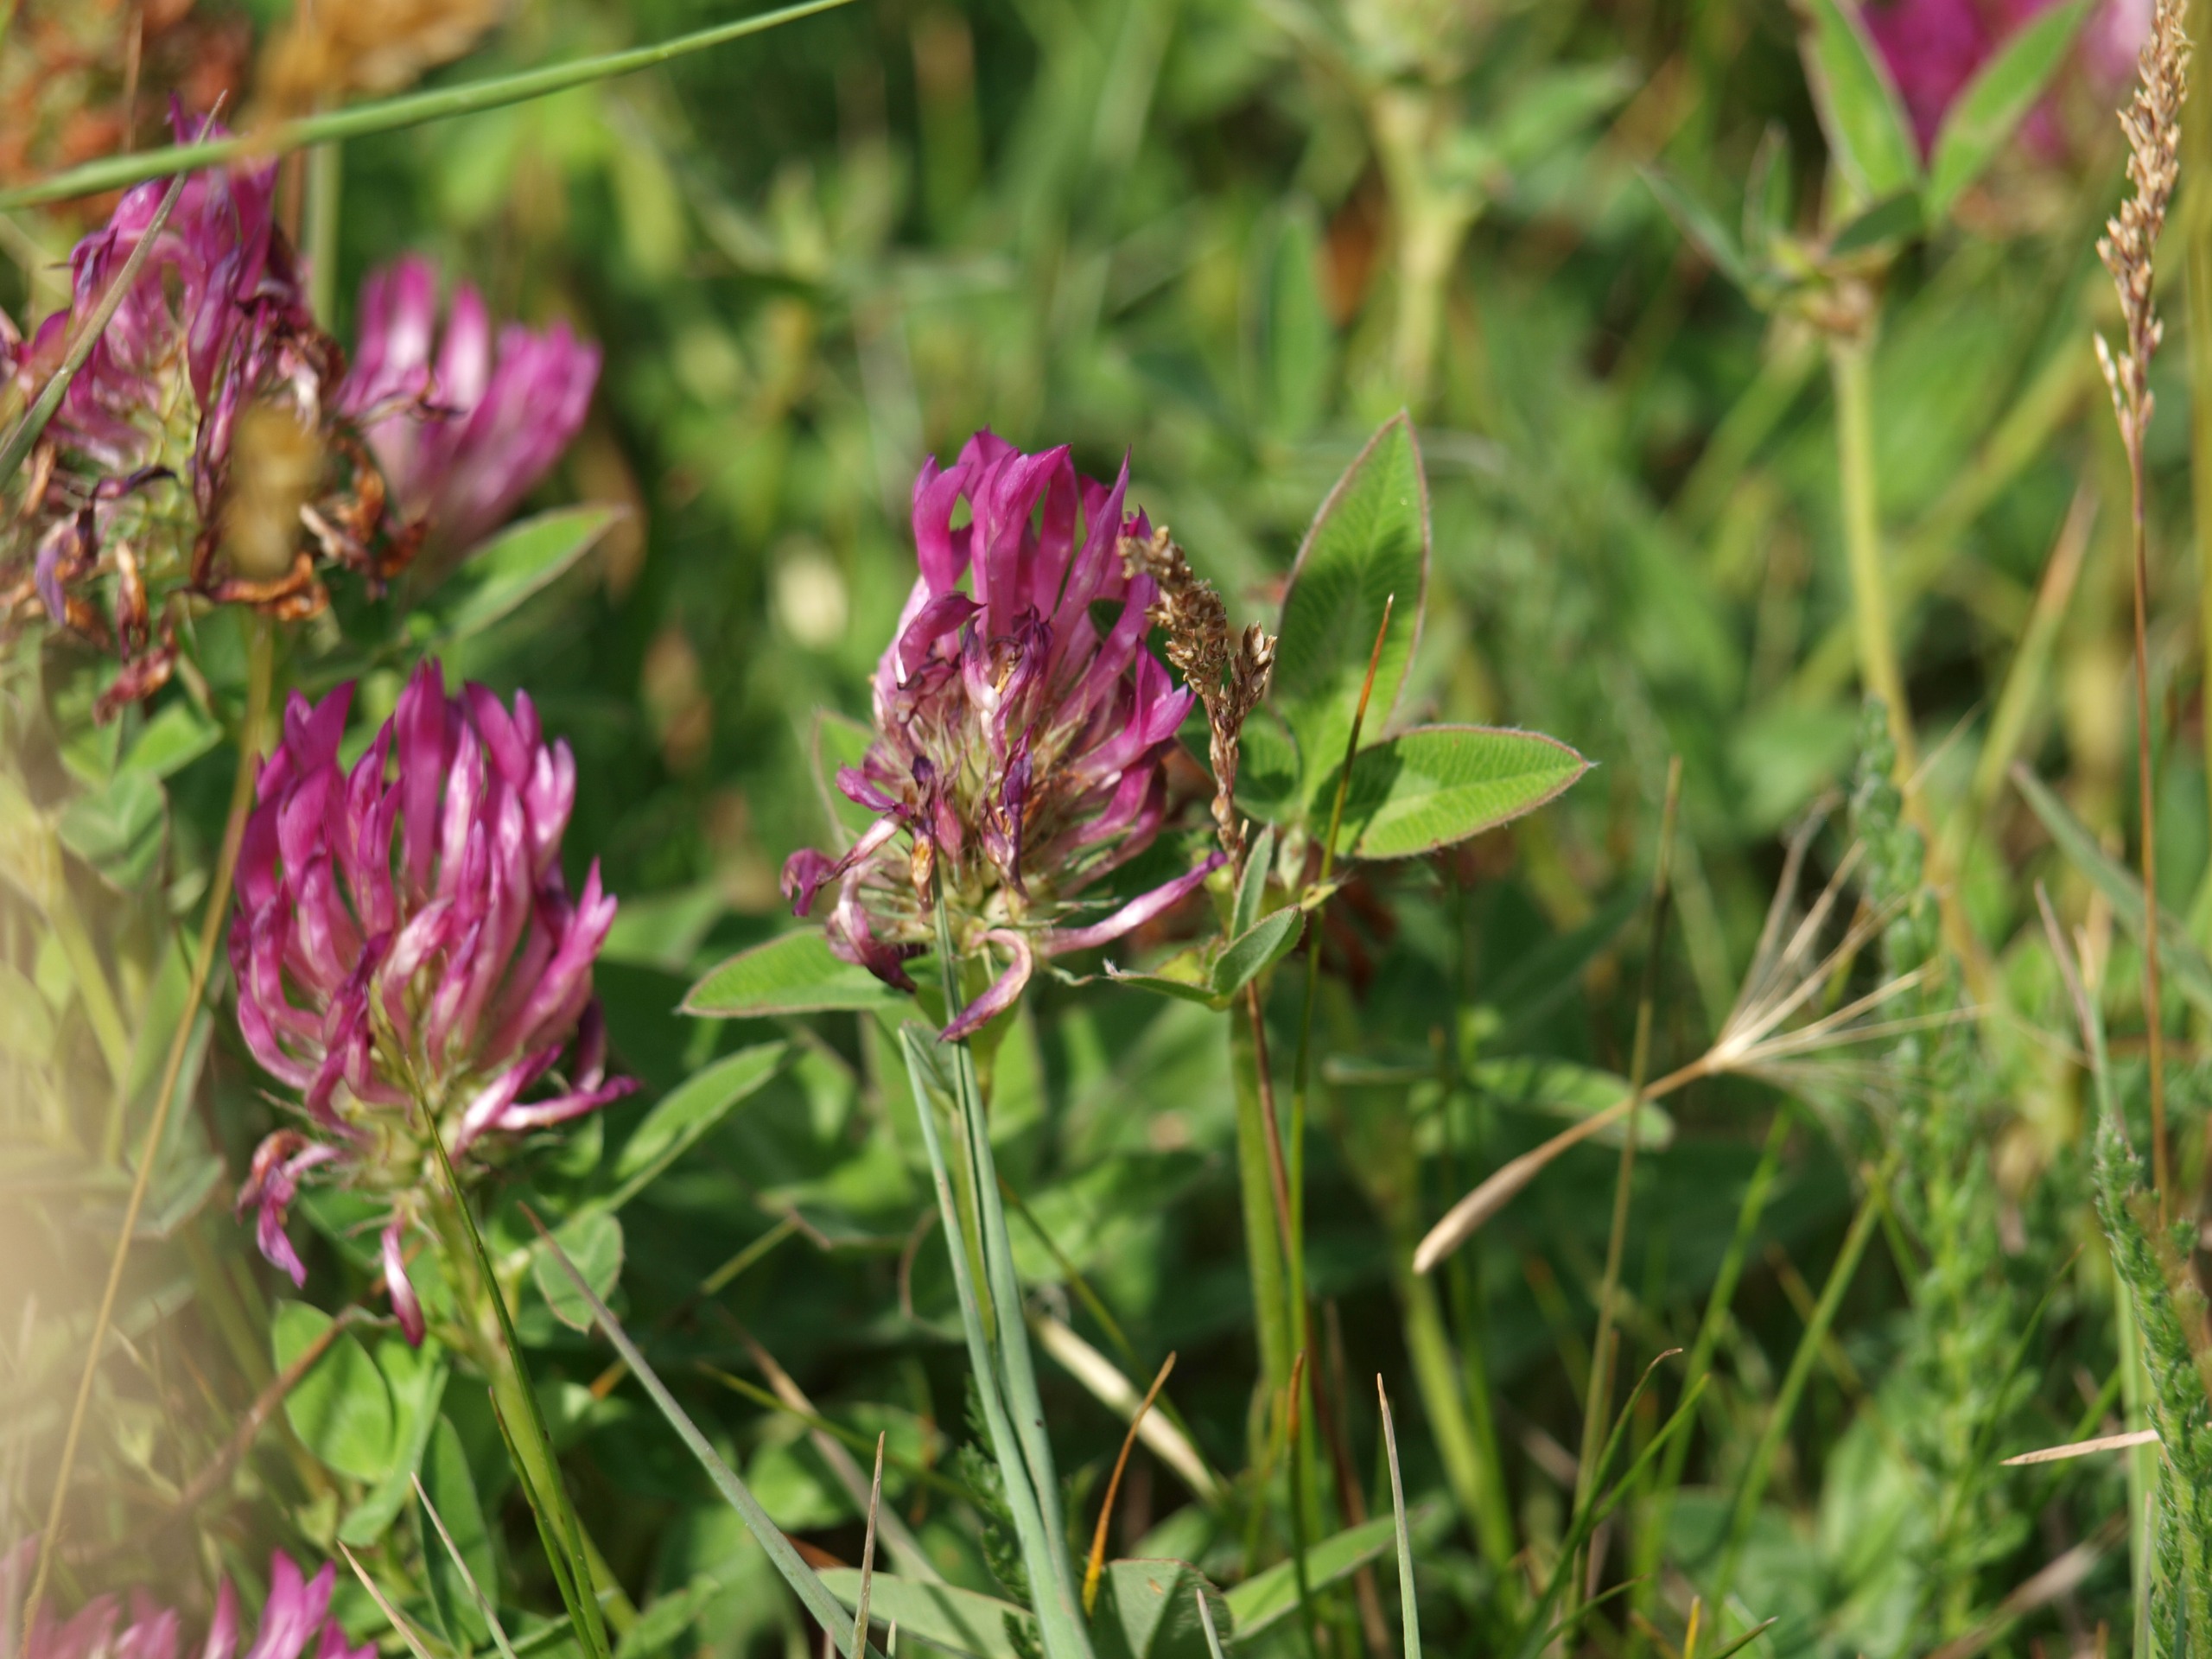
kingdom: Plantae
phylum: Tracheophyta
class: Magnoliopsida
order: Fabales
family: Fabaceae
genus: Trifolium
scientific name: Trifolium medium
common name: Bugtet kløver
